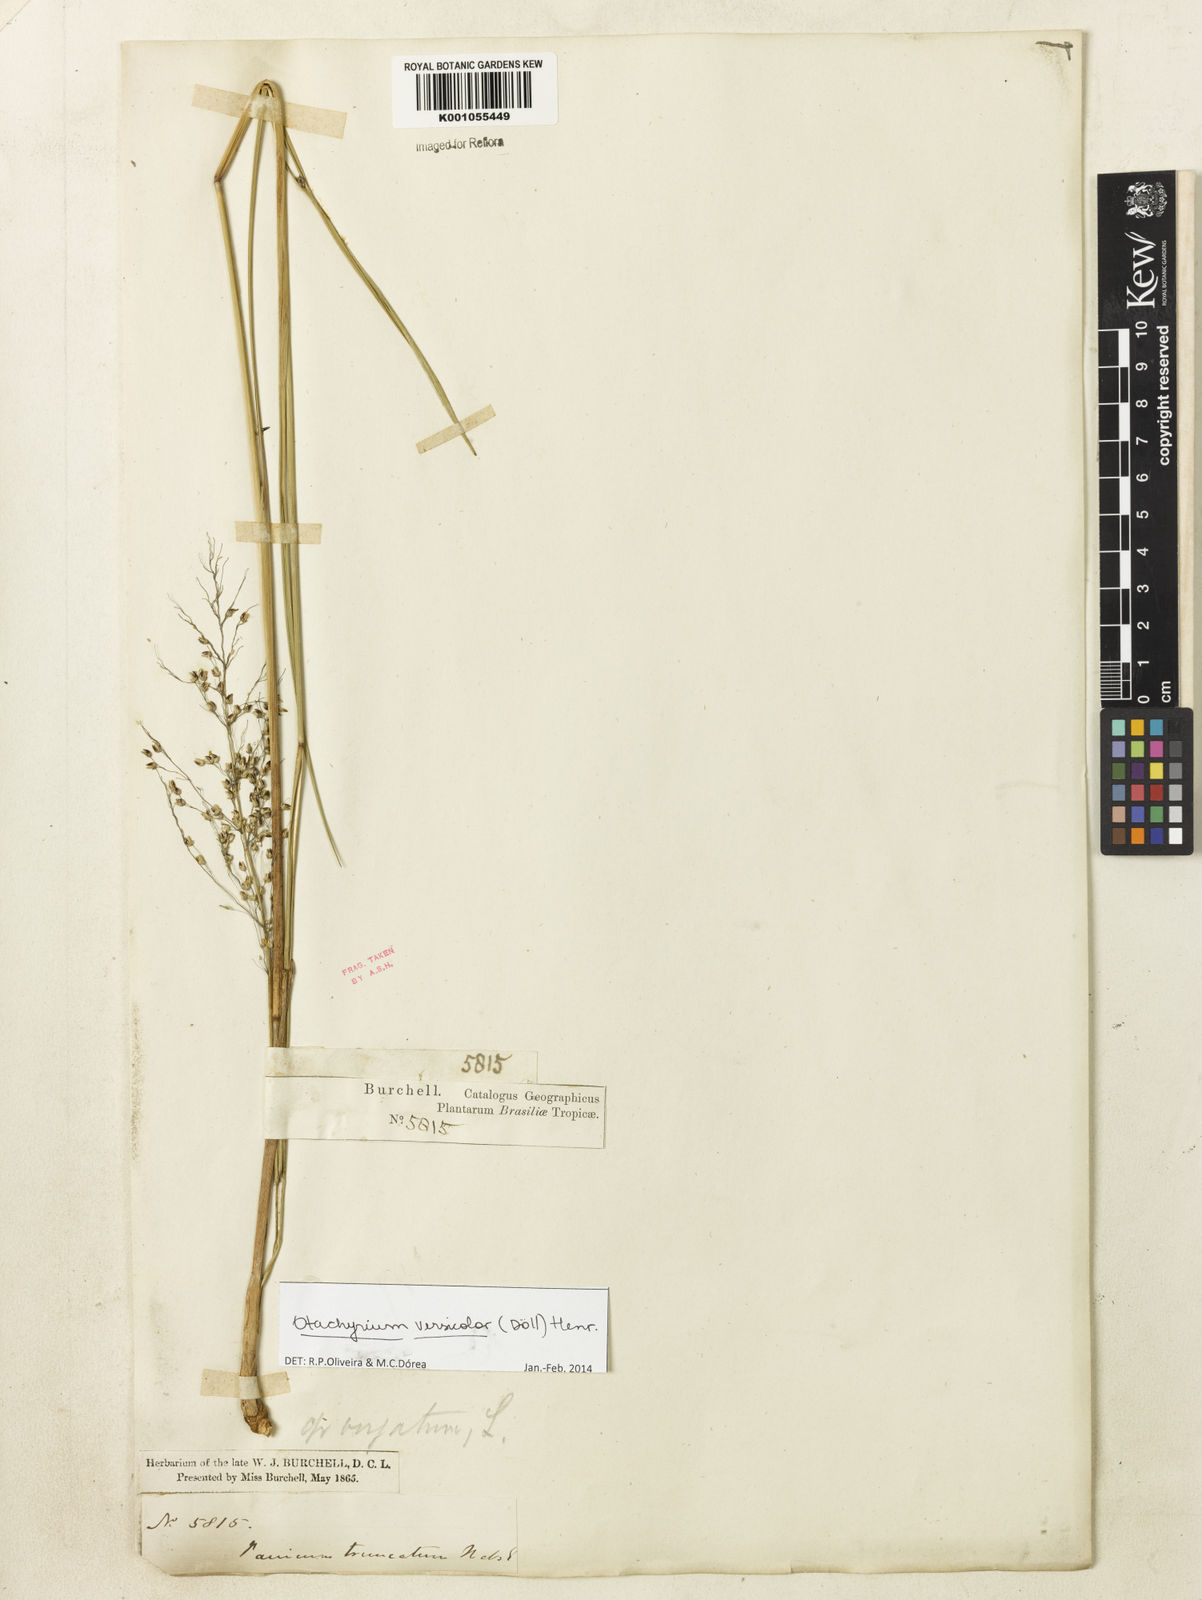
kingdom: Plantae
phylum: Tracheophyta
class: Liliopsida
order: Poales
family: Poaceae
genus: Otachyrium
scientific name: Otachyrium
